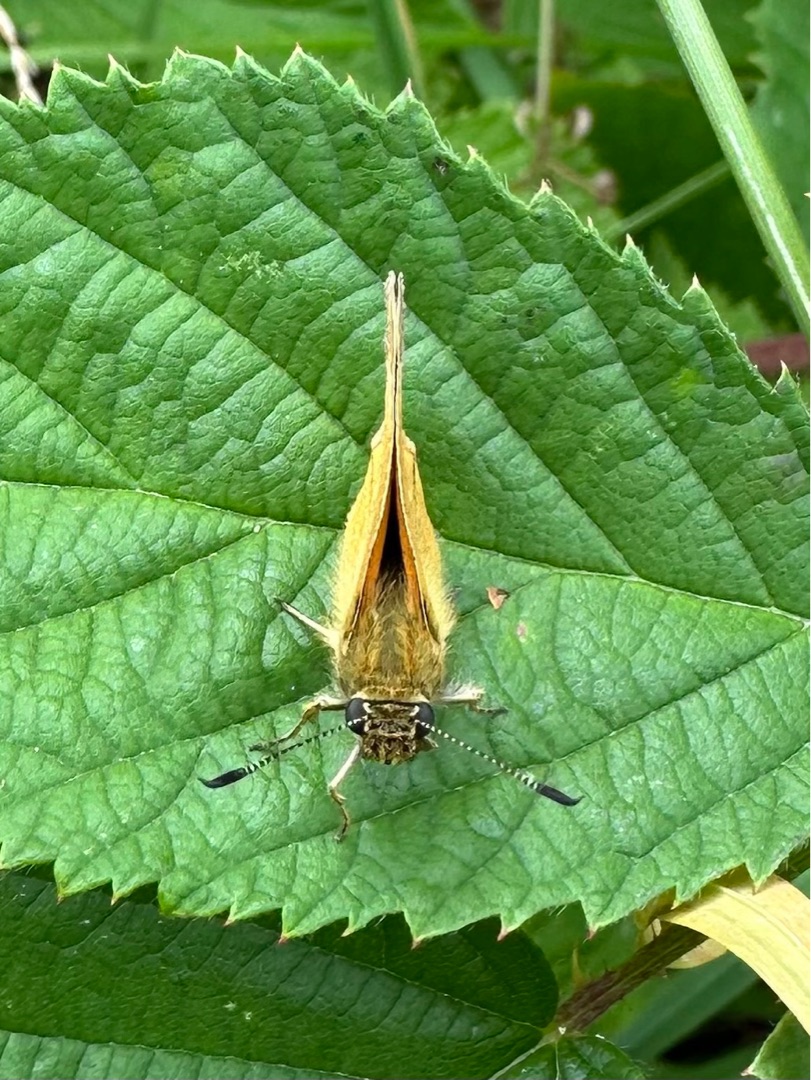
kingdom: Animalia
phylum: Arthropoda
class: Insecta
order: Lepidoptera
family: Hesperiidae
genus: Ochlodes
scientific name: Ochlodes venata
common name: Stor bredpande
